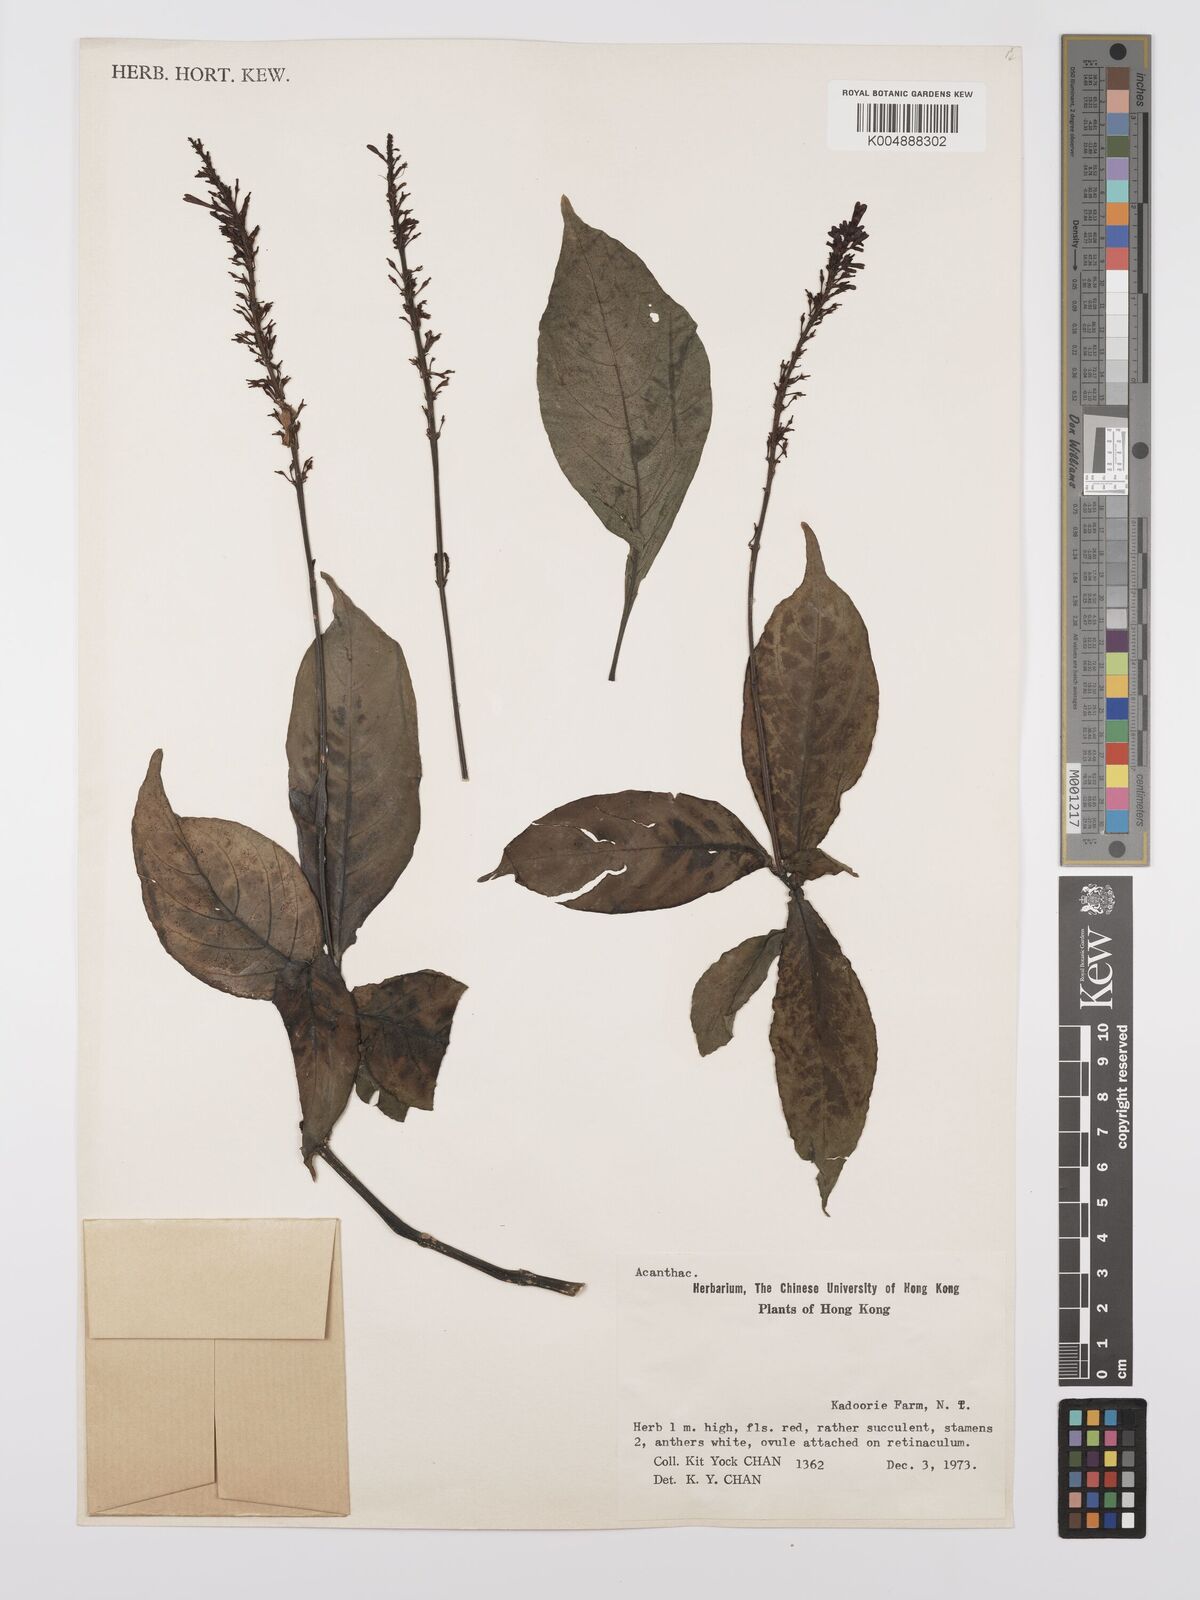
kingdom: Plantae
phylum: Tracheophyta
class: Magnoliopsida
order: Lamiales
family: Acanthaceae
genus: Odontonema
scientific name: Odontonema cuspidatum
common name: Mottled toothedthread
